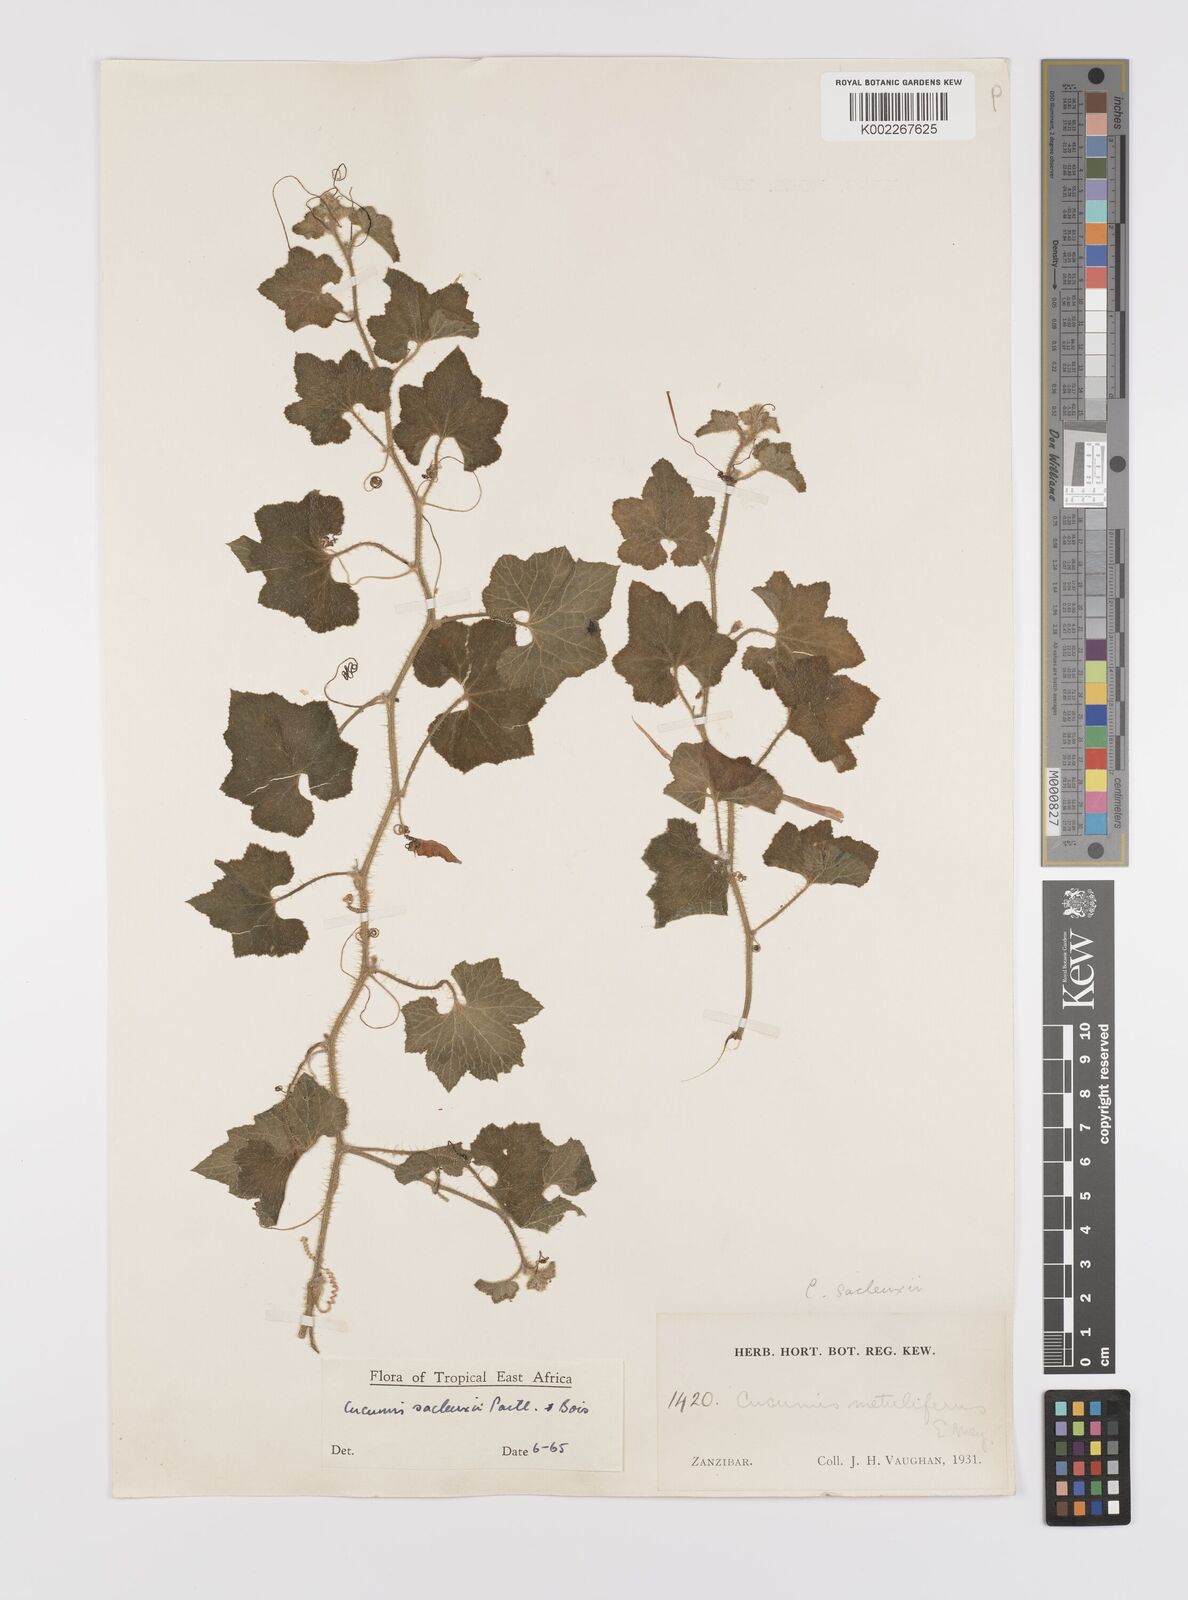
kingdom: Plantae
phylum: Tracheophyta
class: Magnoliopsida
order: Cucurbitales
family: Cucurbitaceae
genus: Cucumis
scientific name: Cucumis sacleuxii
